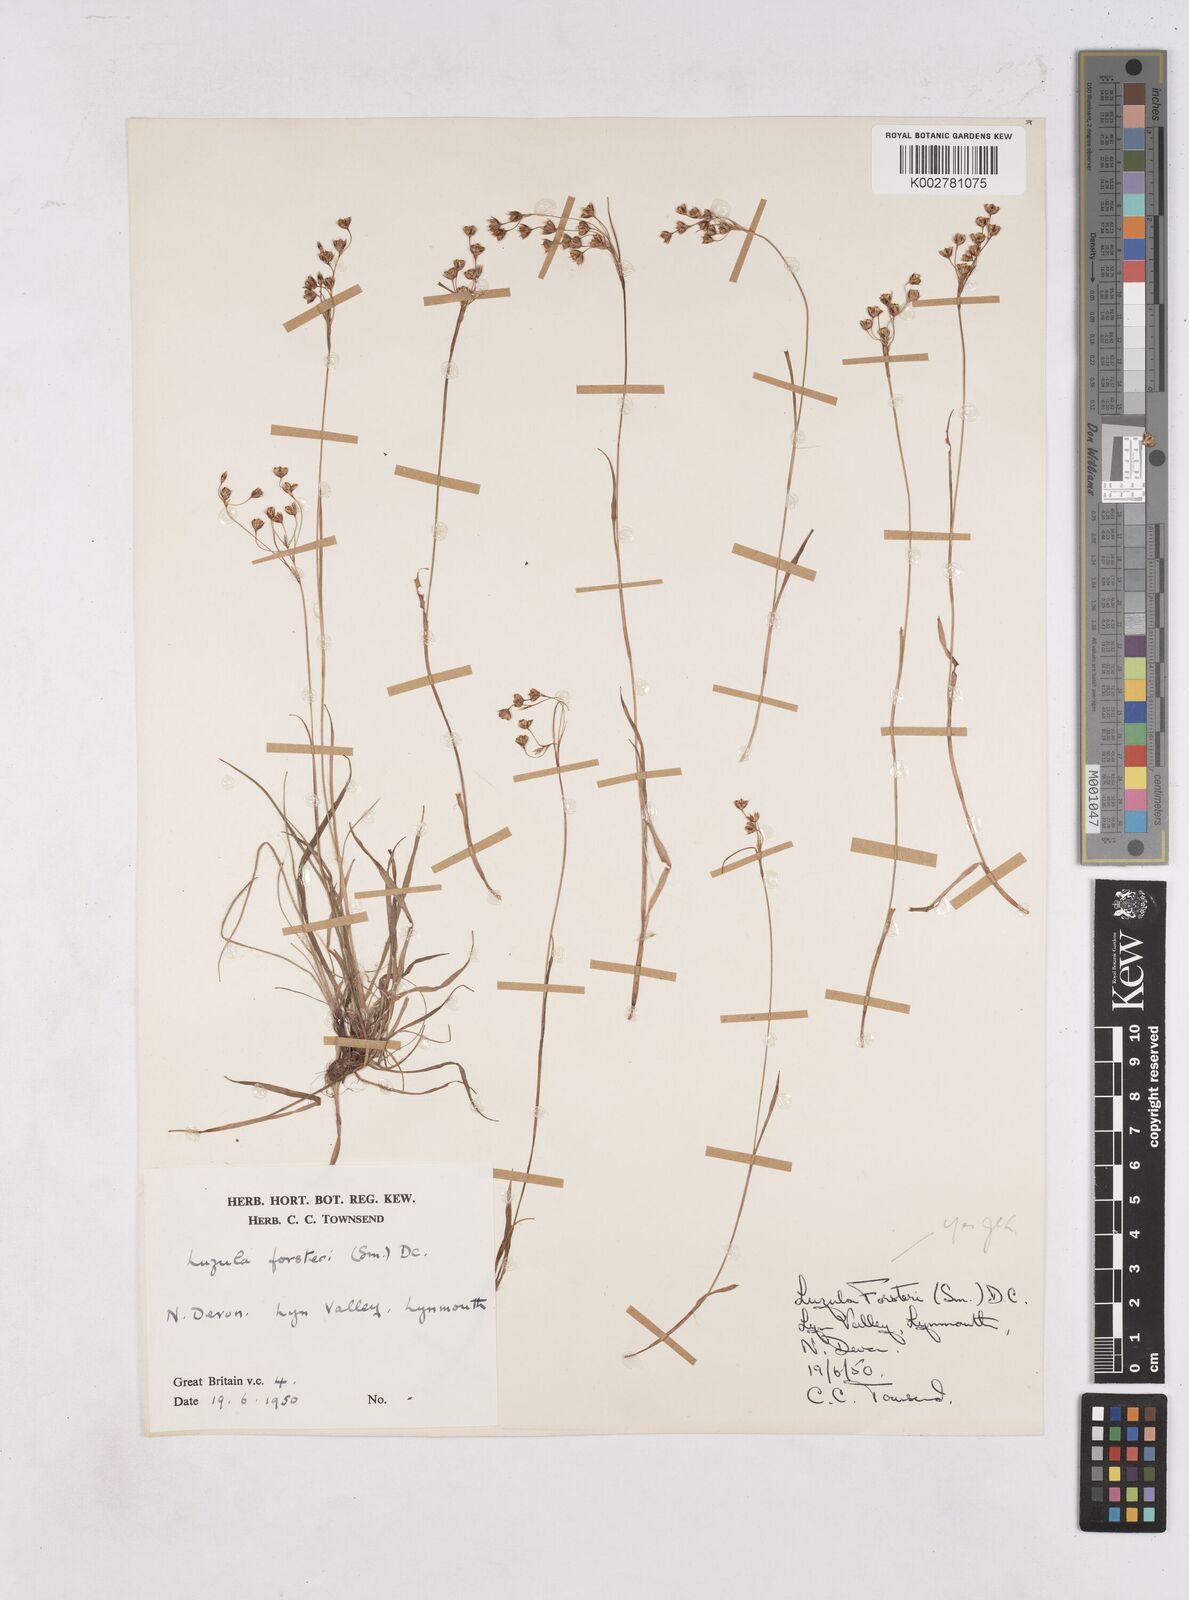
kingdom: Plantae
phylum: Tracheophyta
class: Liliopsida
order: Poales
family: Juncaceae
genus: Luzula
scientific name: Luzula forsteri
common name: Southern wood-rush
